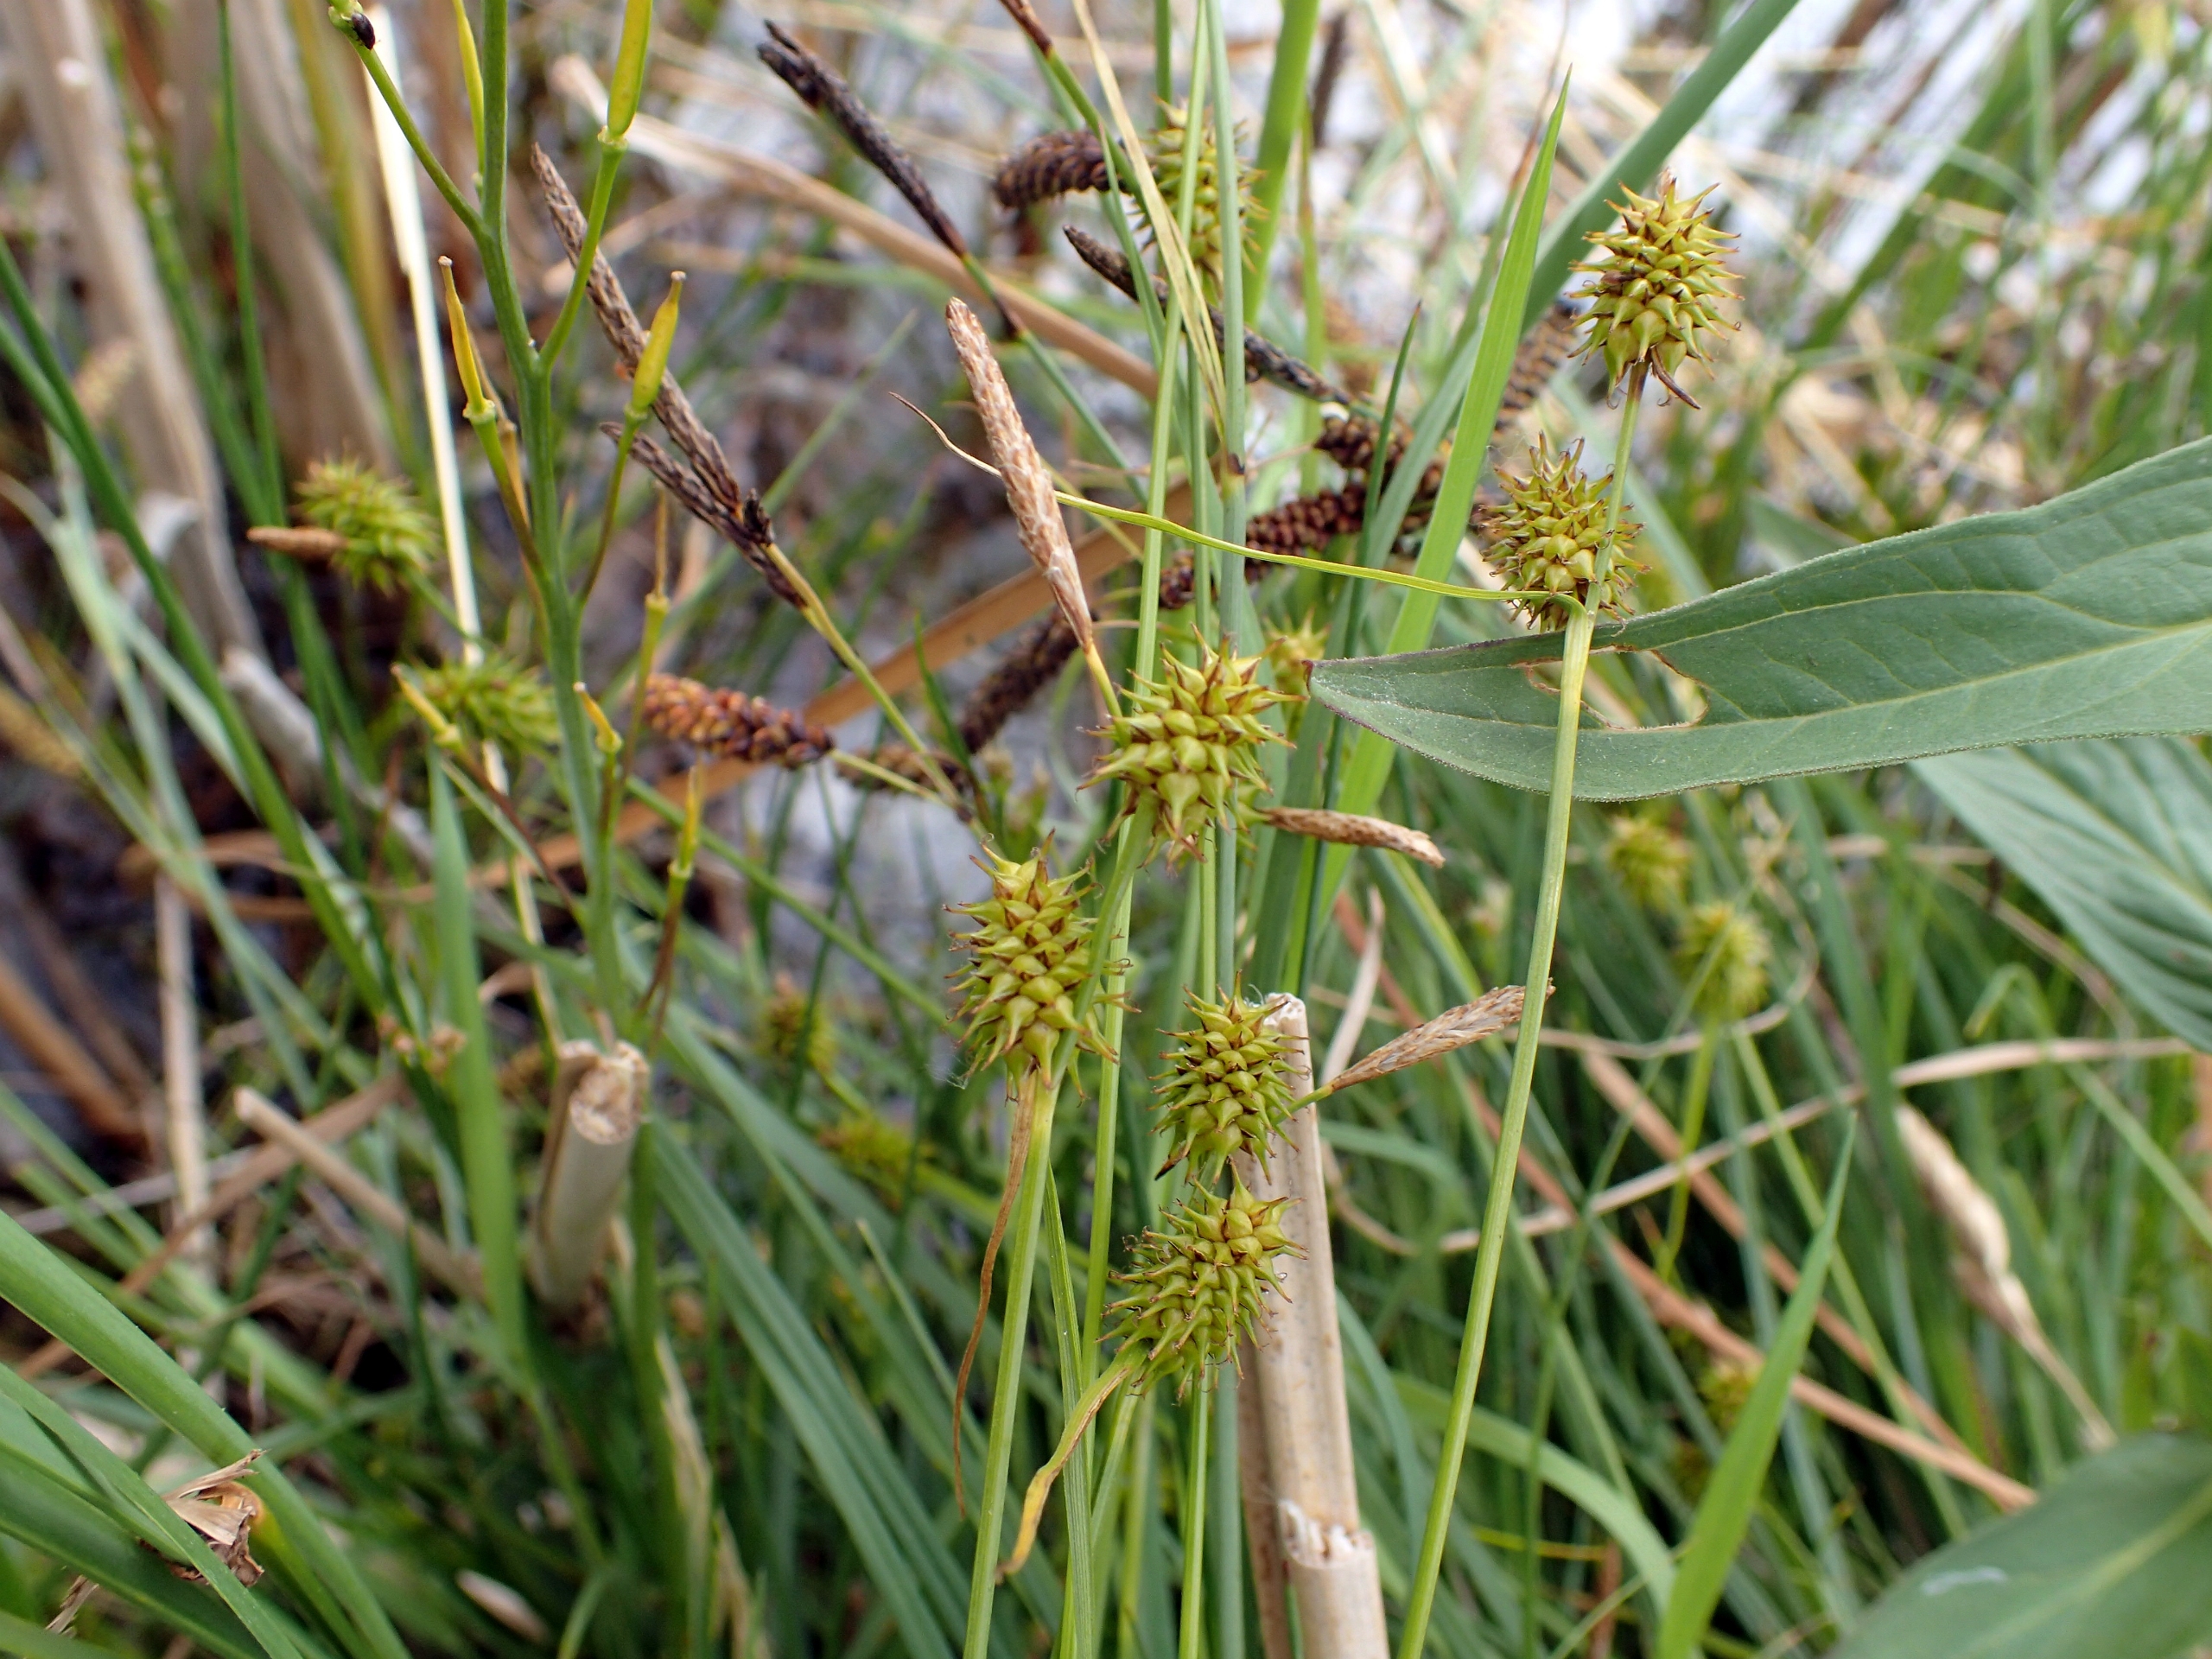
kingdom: Plantae
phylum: Tracheophyta
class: Liliopsida
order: Poales
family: Cyperaceae
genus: Carex
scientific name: Carex lepidocarpa
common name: Krognæb-star
